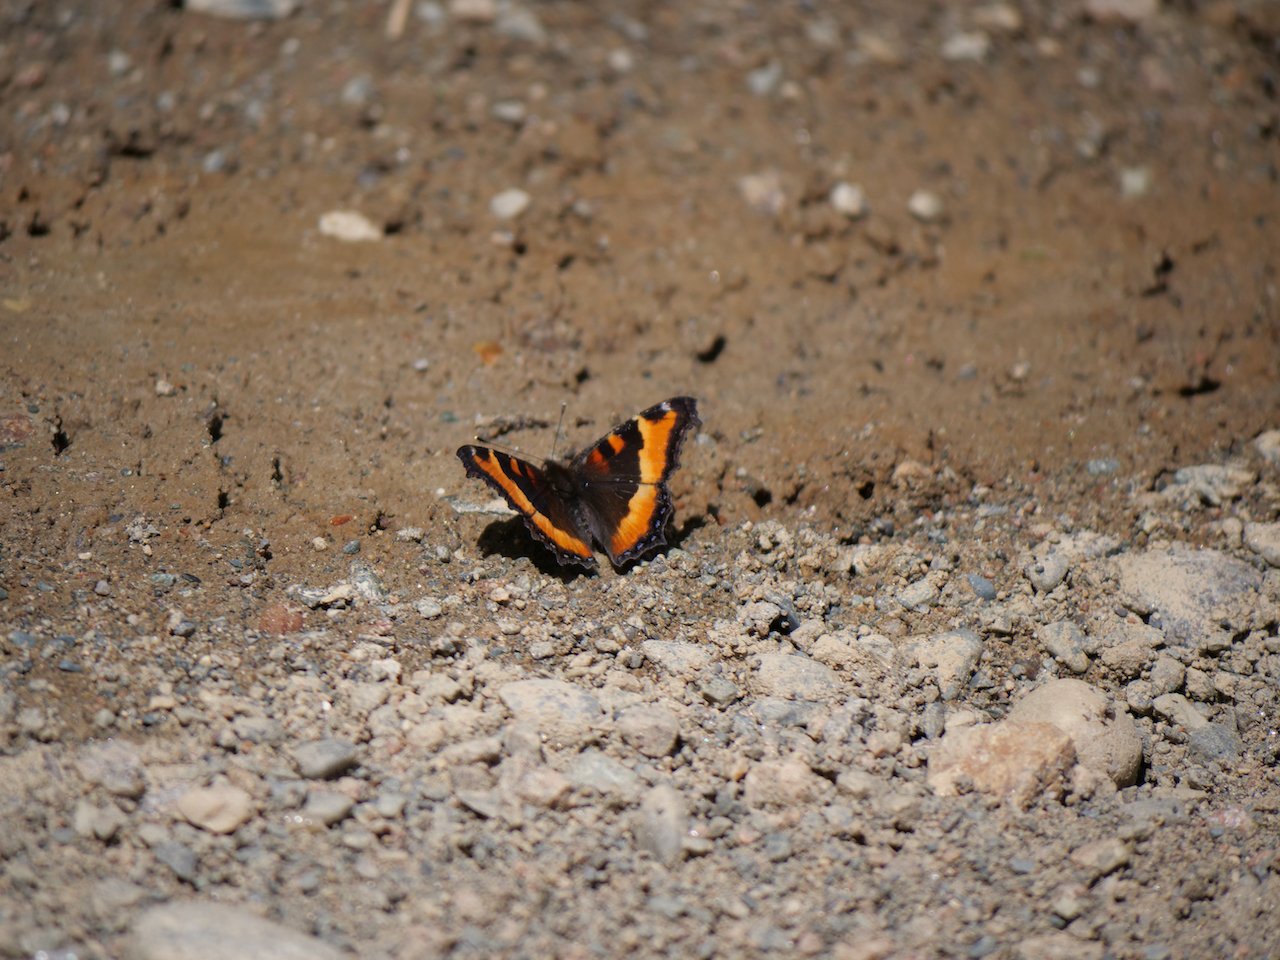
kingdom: Animalia
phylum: Arthropoda
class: Insecta
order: Lepidoptera
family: Nymphalidae
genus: Aglais
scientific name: Aglais milberti
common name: Milbert's Tortoiseshell
